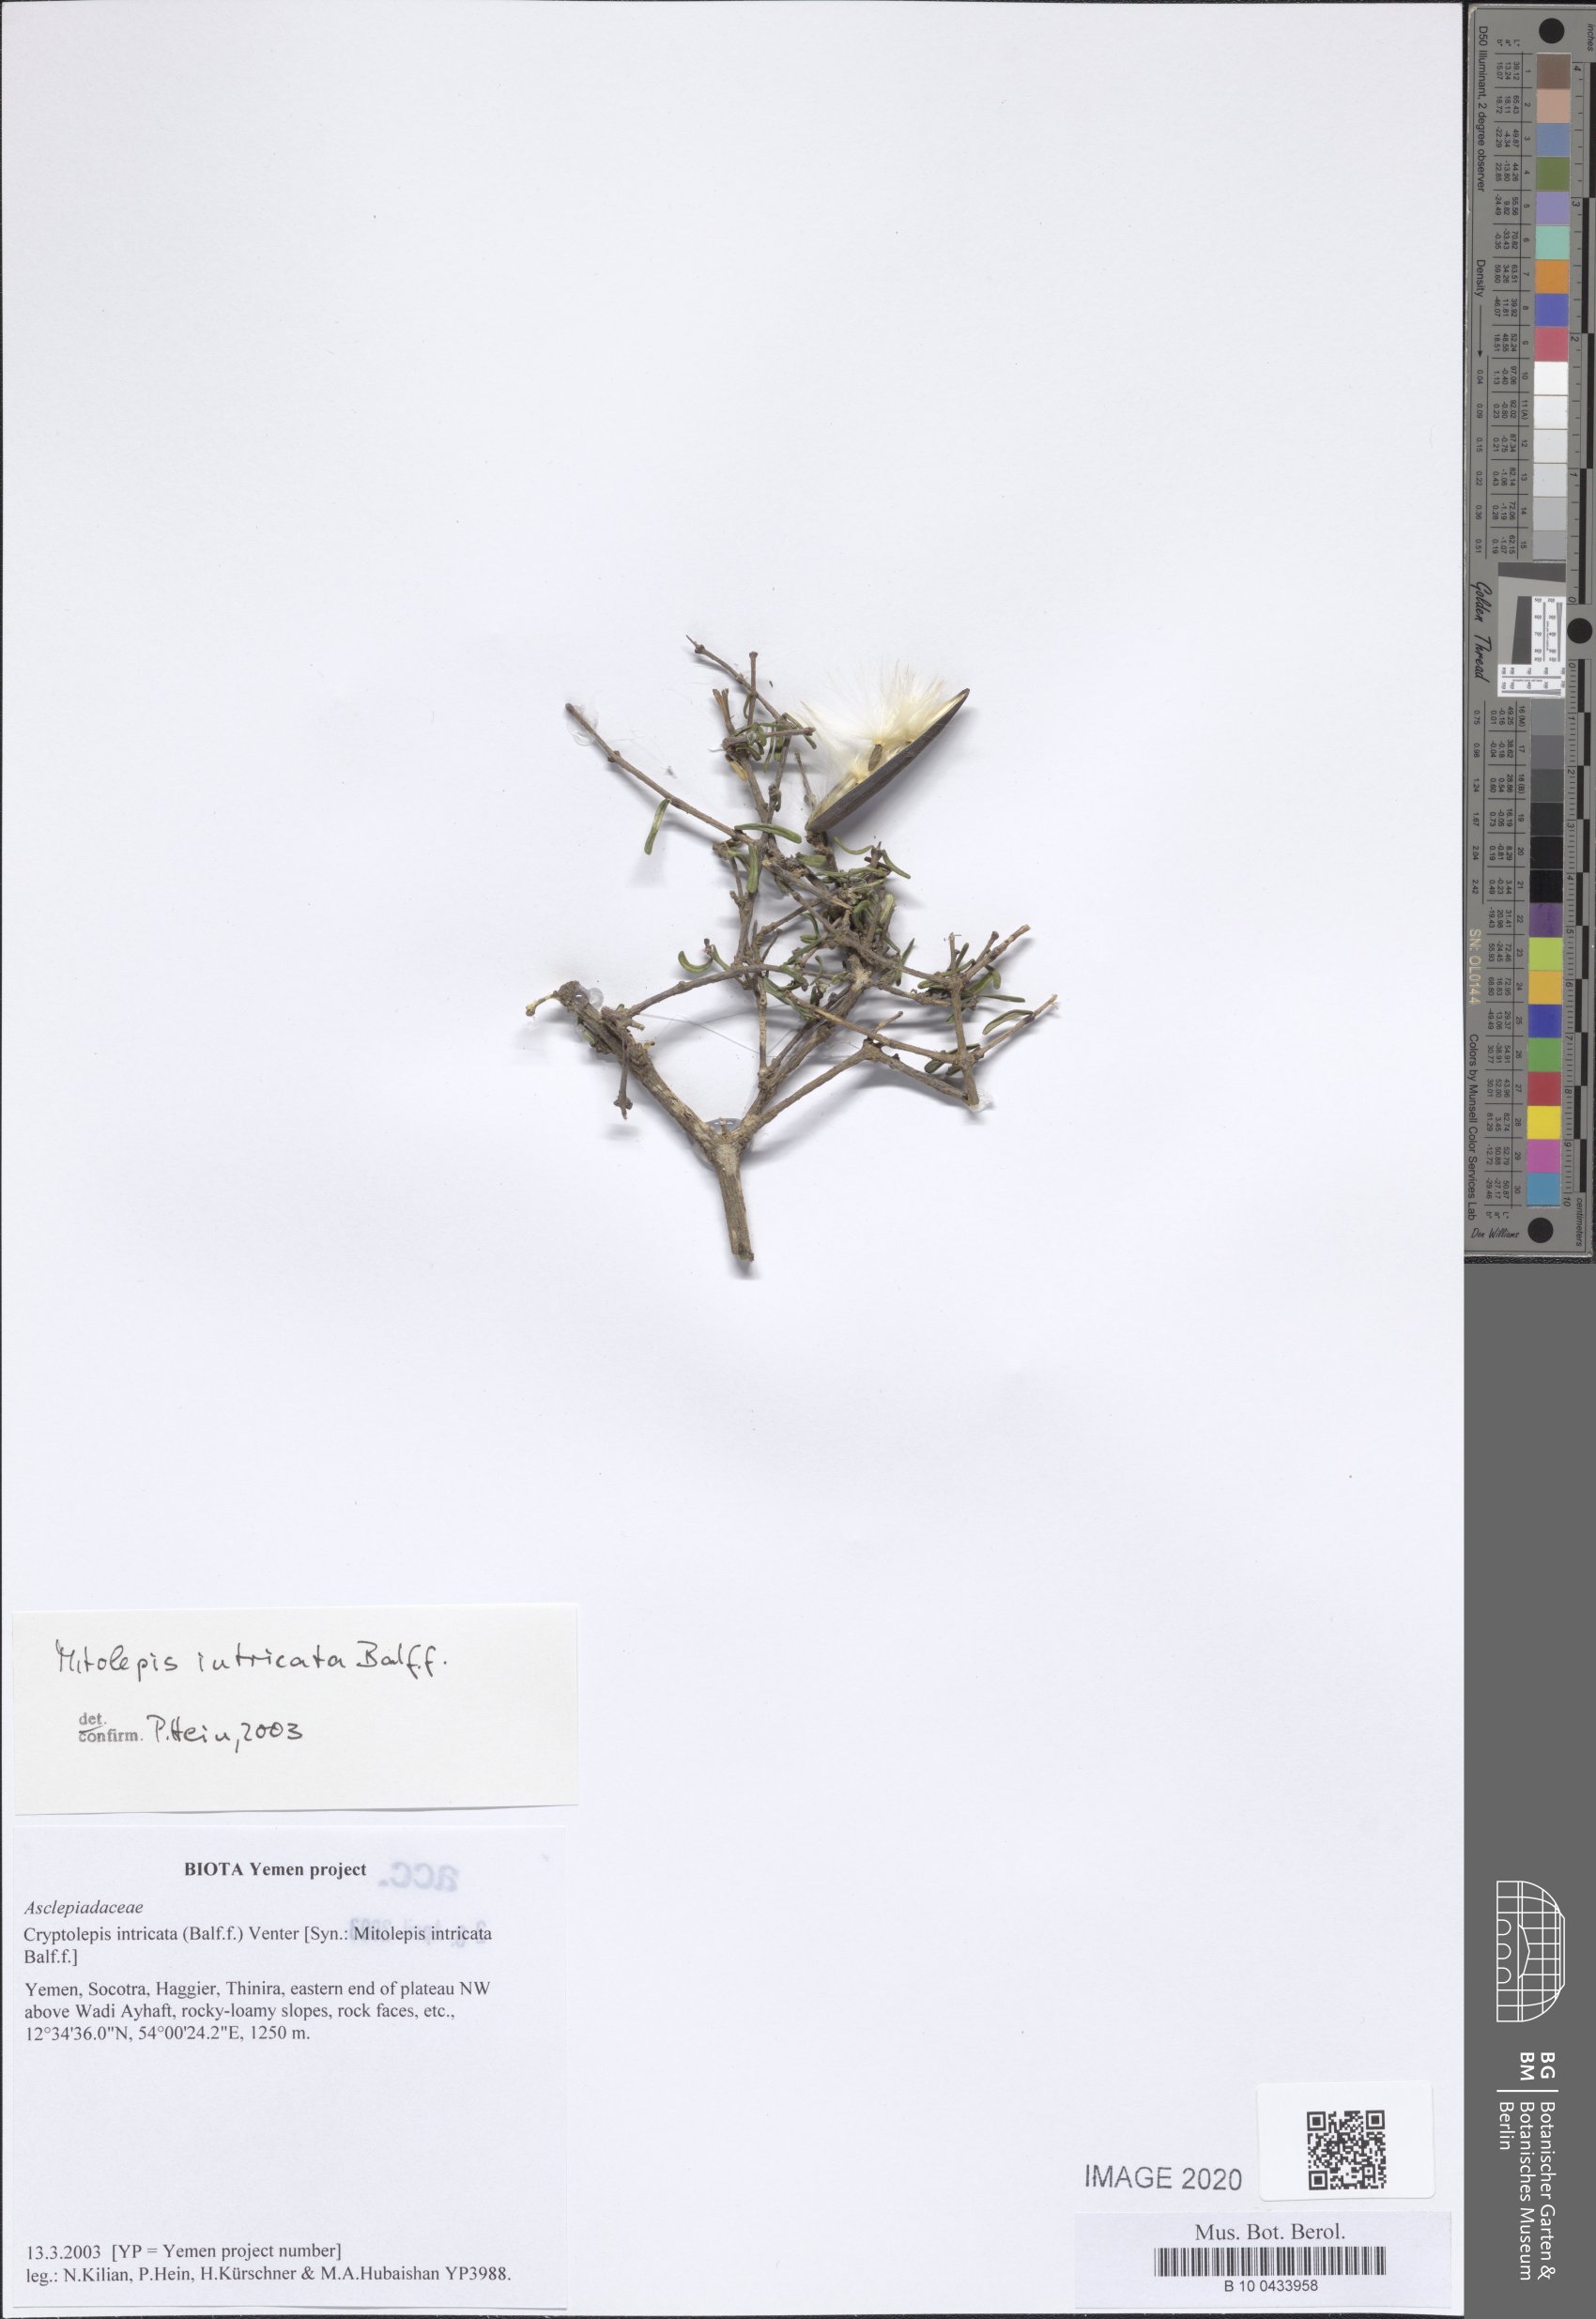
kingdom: Plantae
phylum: Tracheophyta
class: Magnoliopsida
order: Gentianales
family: Apocynaceae
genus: Cryptolepis
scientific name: Cryptolepis intricata
